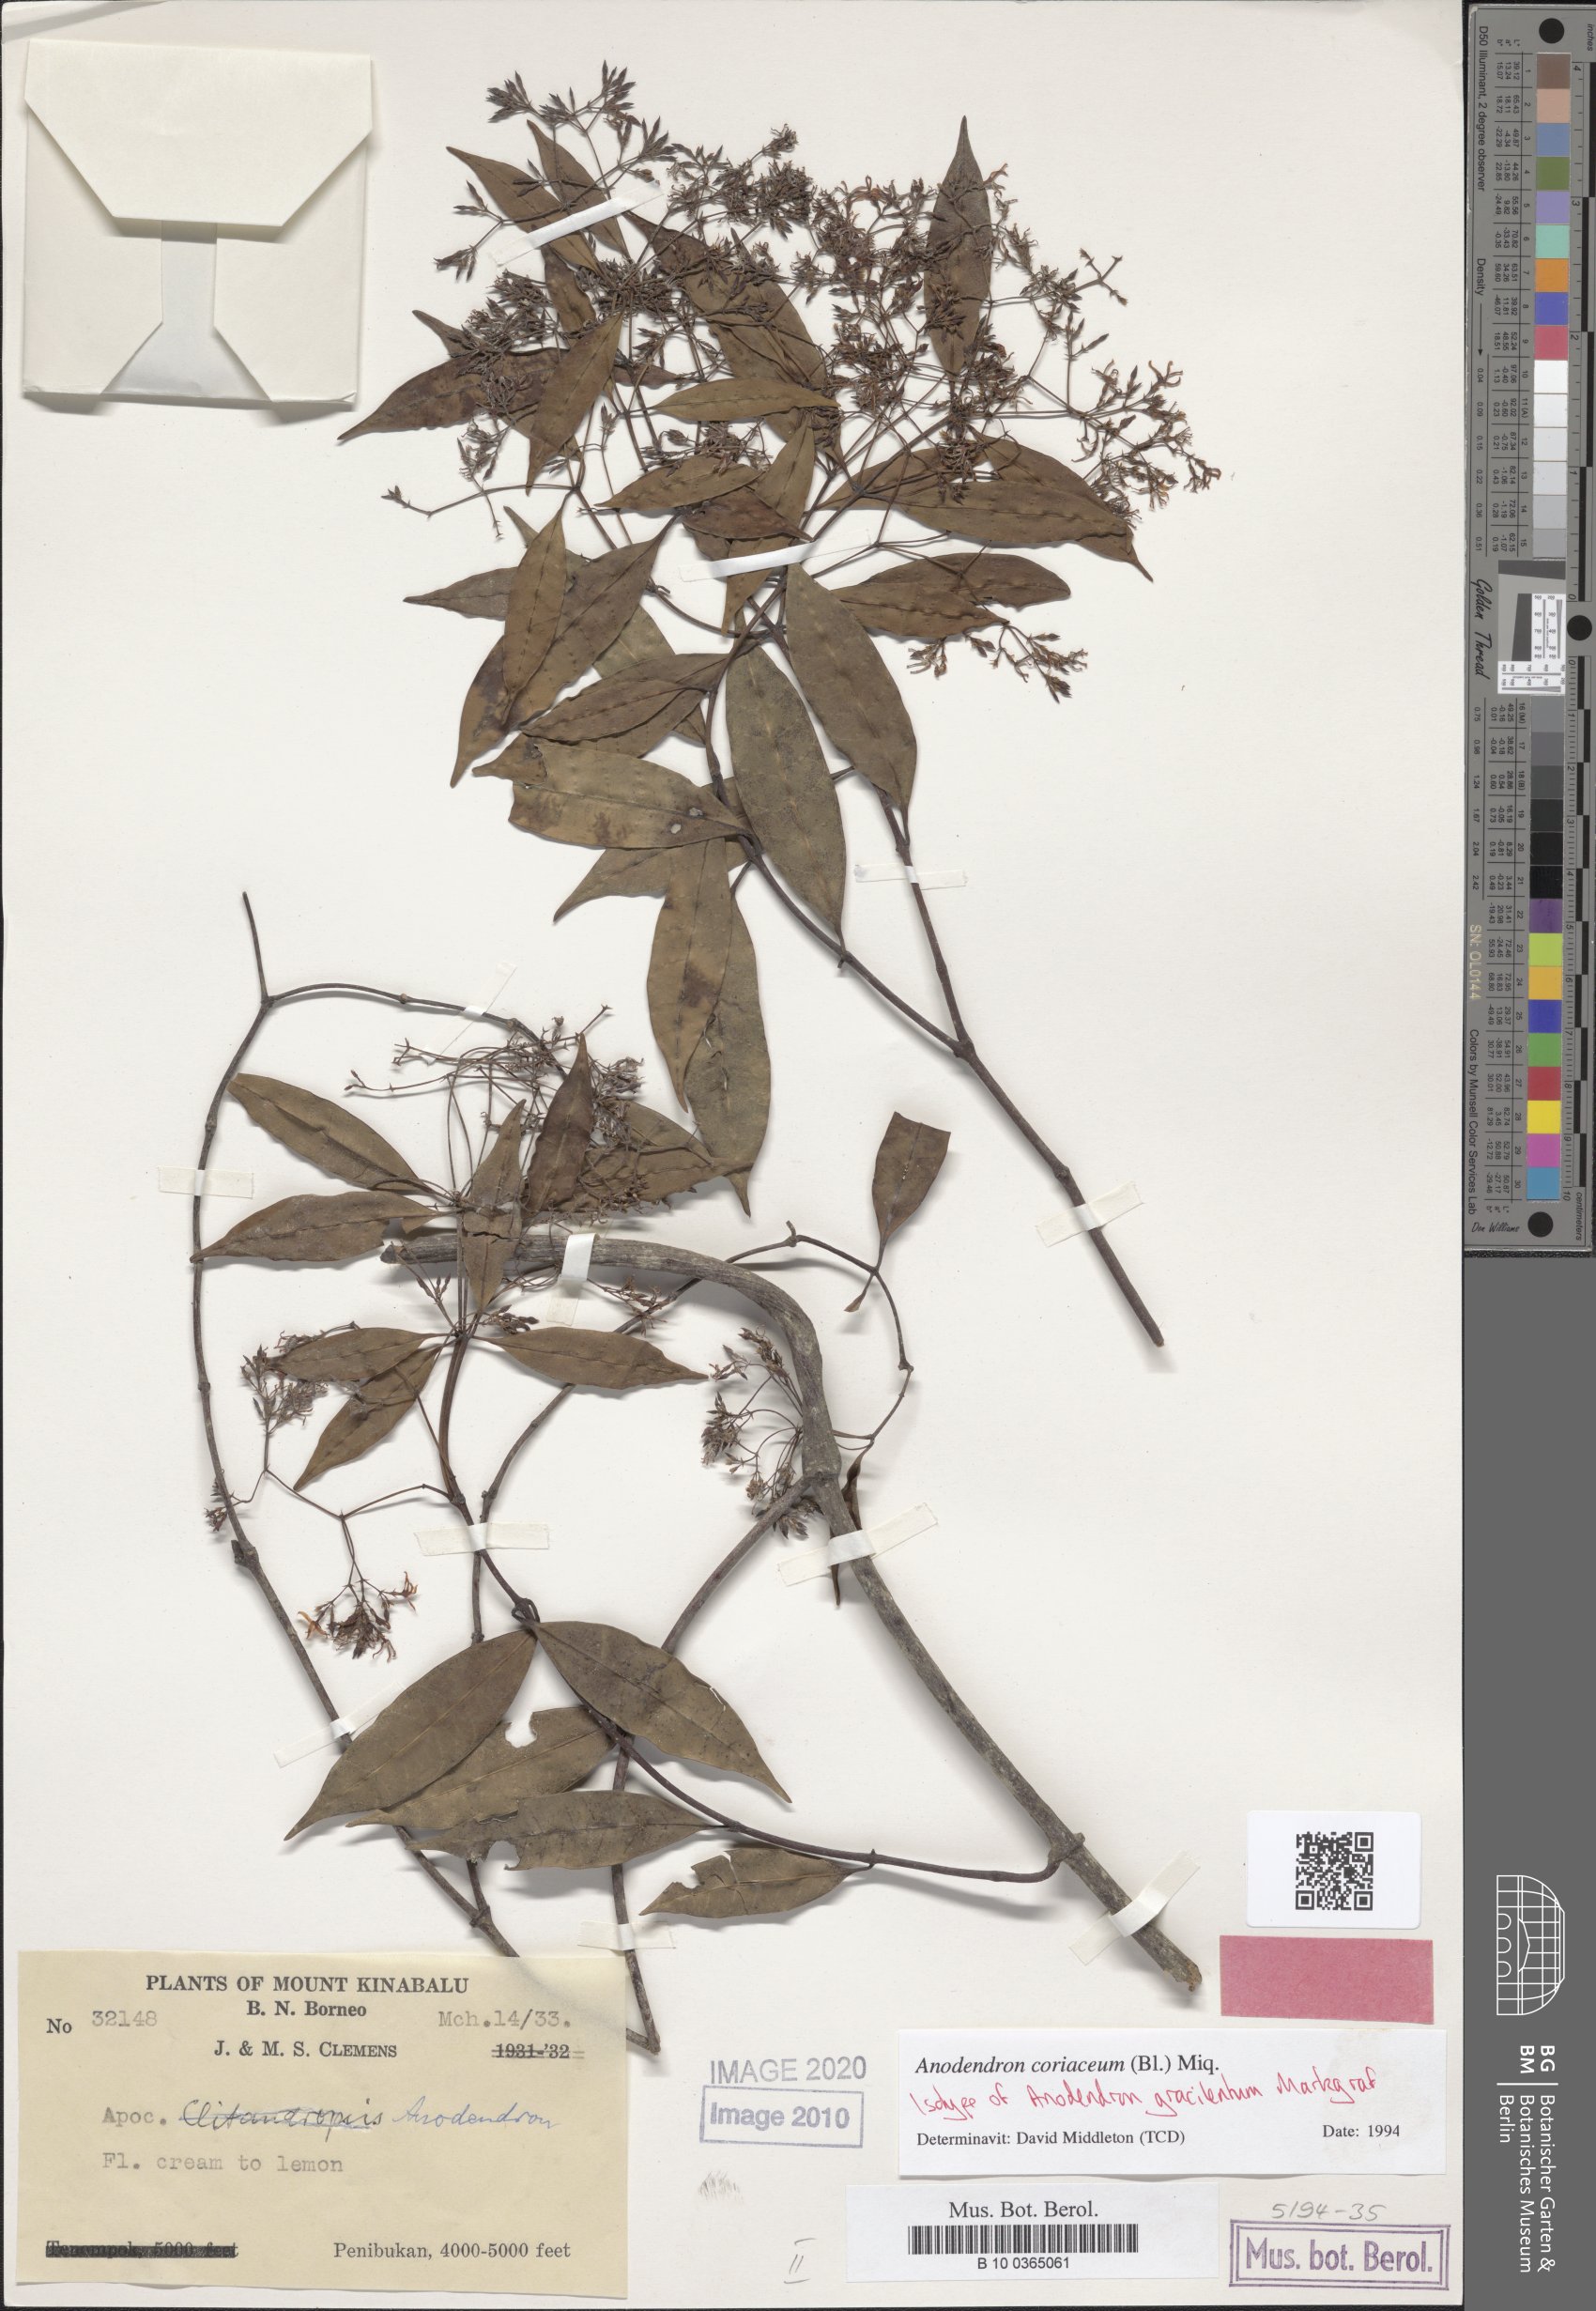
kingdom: Plantae
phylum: Tracheophyta
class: Magnoliopsida
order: Gentianales
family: Apocynaceae
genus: Anodendron
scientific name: Anodendron coriaceum
